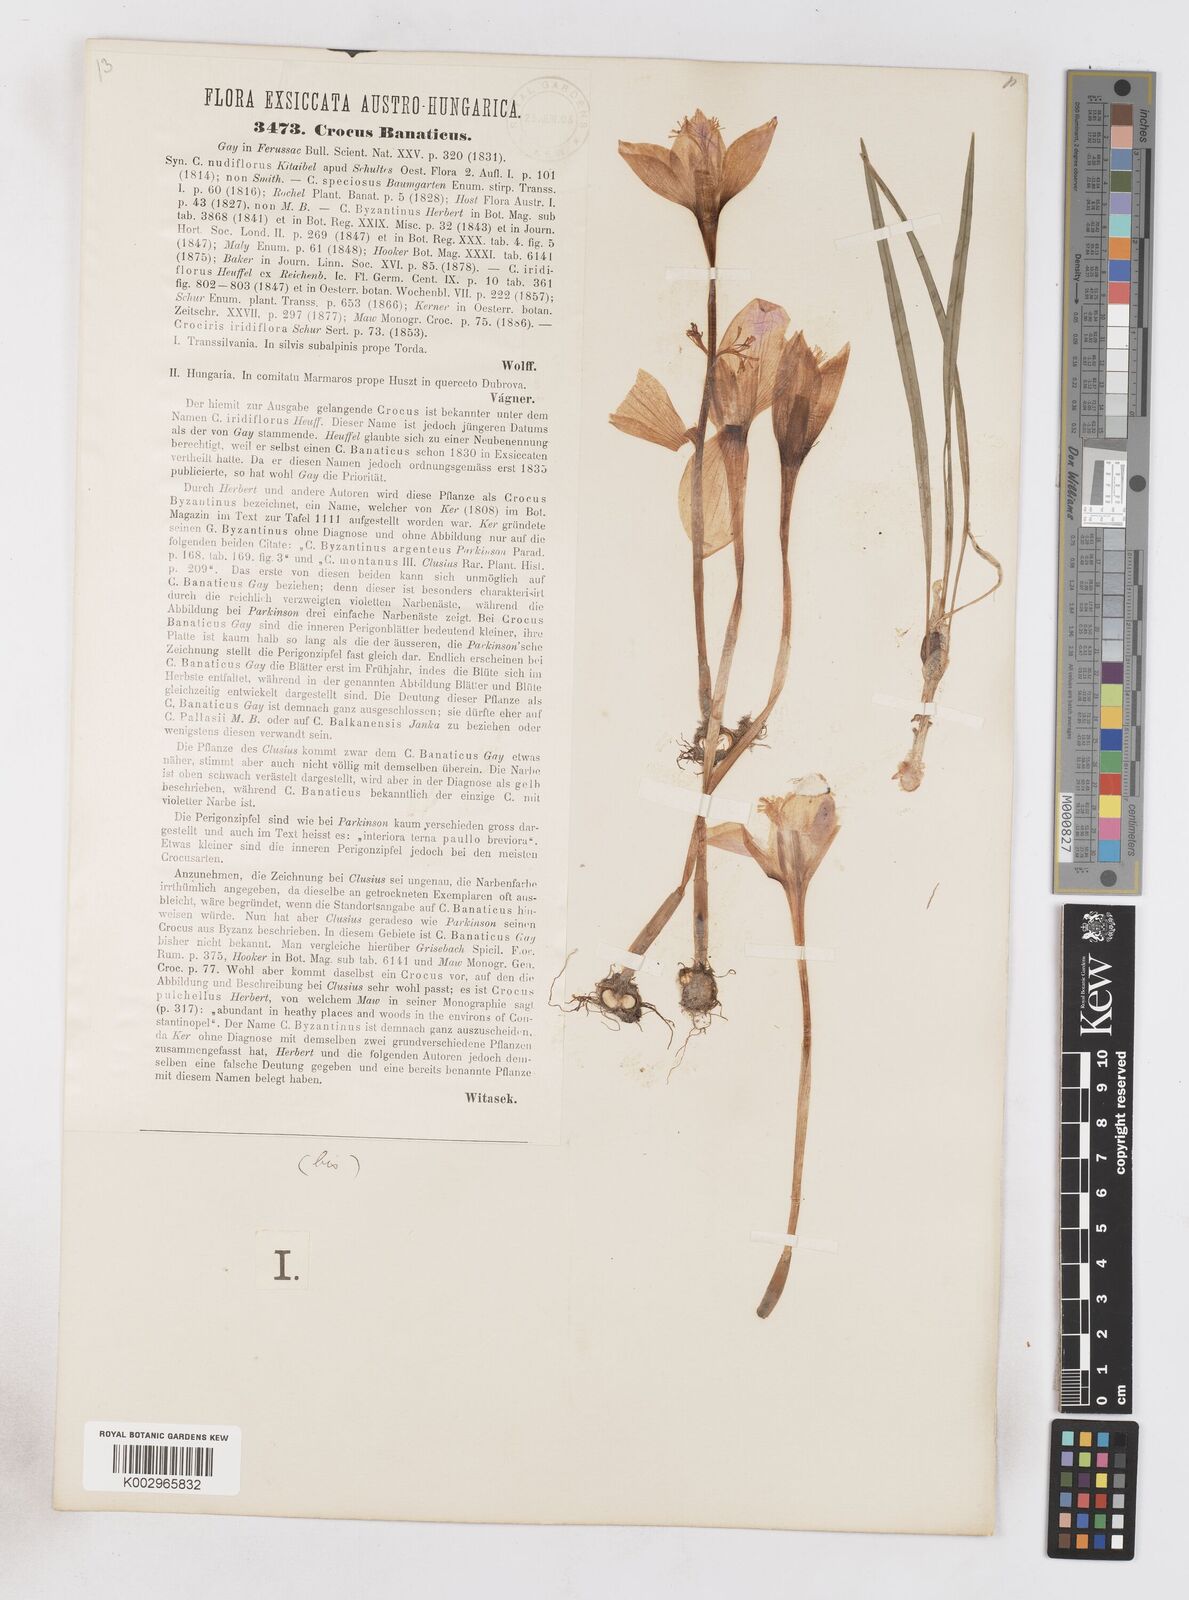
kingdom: Plantae
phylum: Tracheophyta
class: Liliopsida
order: Asparagales
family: Iridaceae
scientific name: Iridaceae
